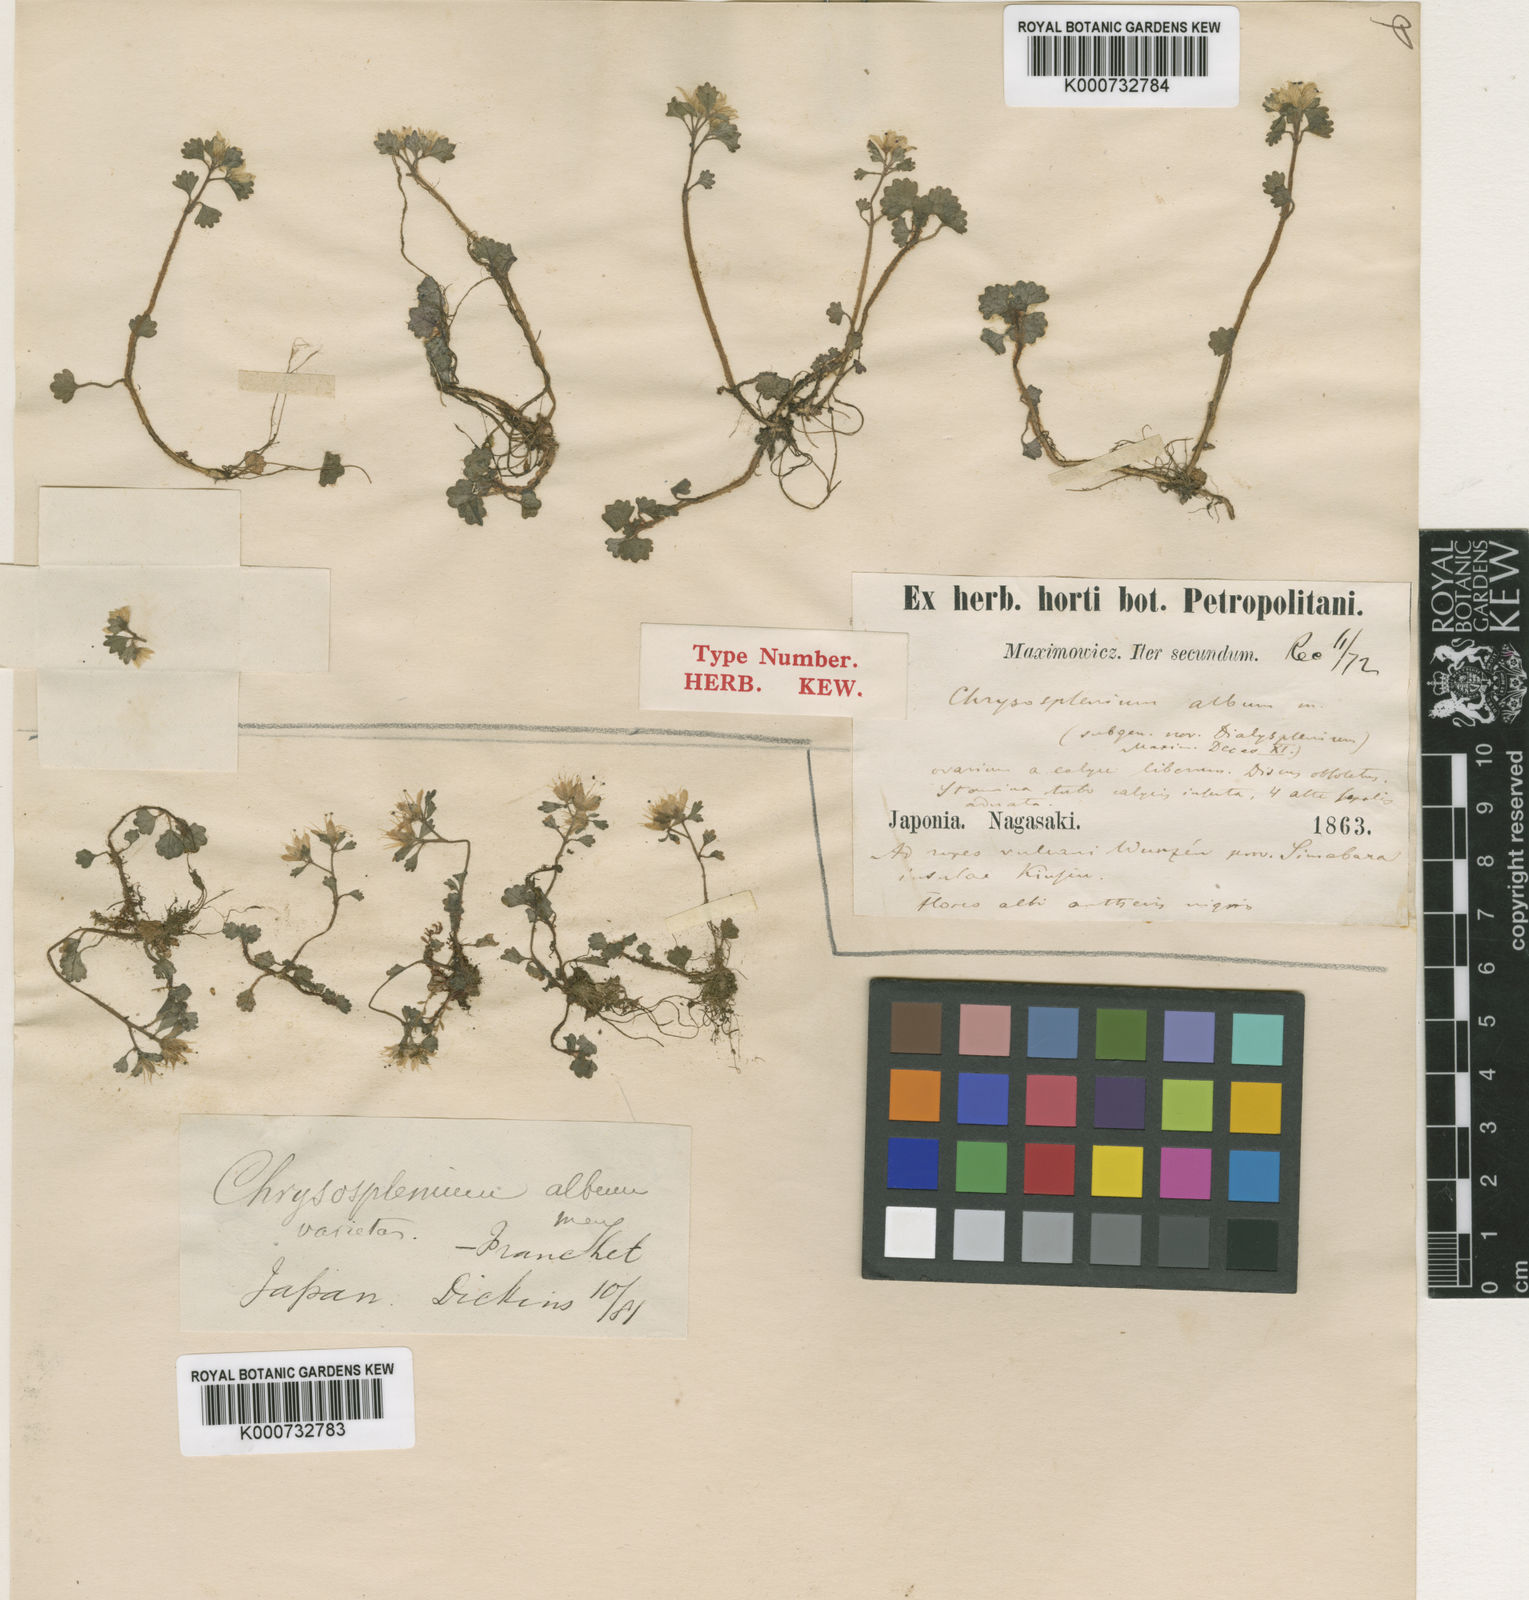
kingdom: Plantae
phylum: Tracheophyta
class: Magnoliopsida
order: Saxifragales
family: Saxifragaceae
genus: Chrysosplenium
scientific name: Chrysosplenium album
